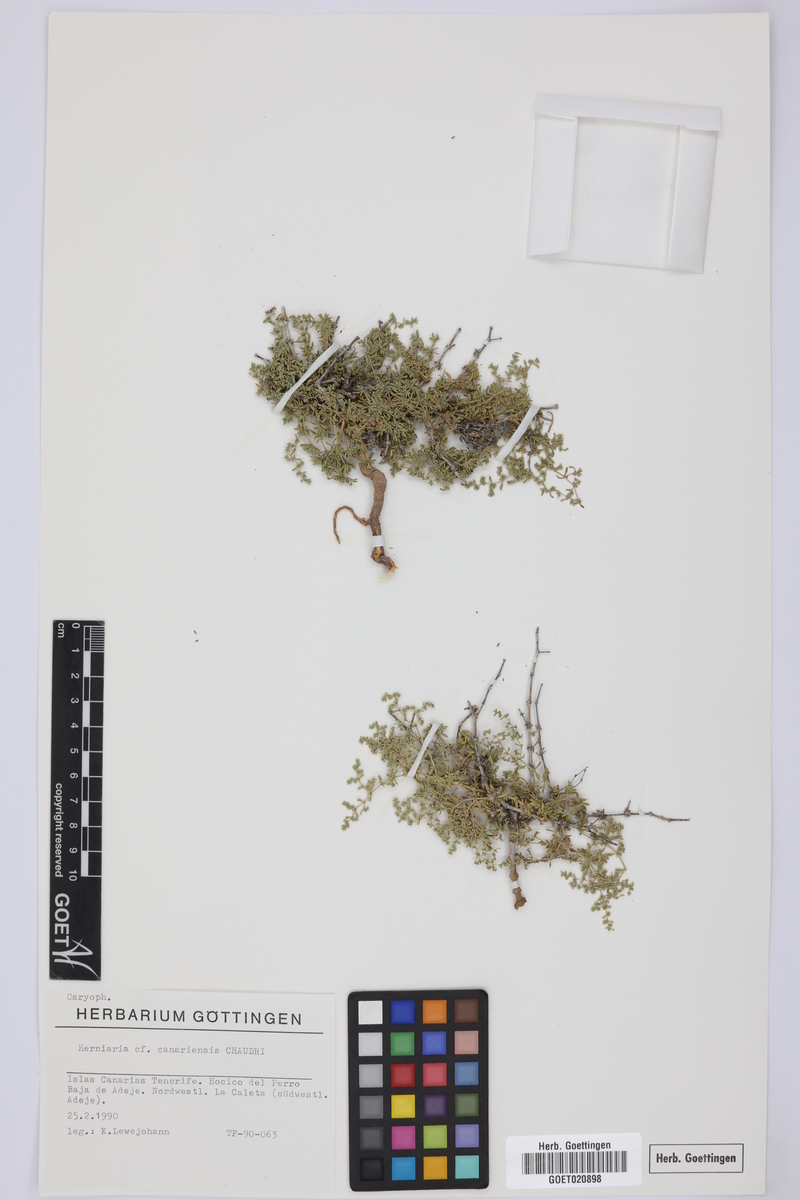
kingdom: Plantae
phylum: Tracheophyta
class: Magnoliopsida
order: Caryophyllales
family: Caryophyllaceae
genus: Herniaria
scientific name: Herniaria canariensis
